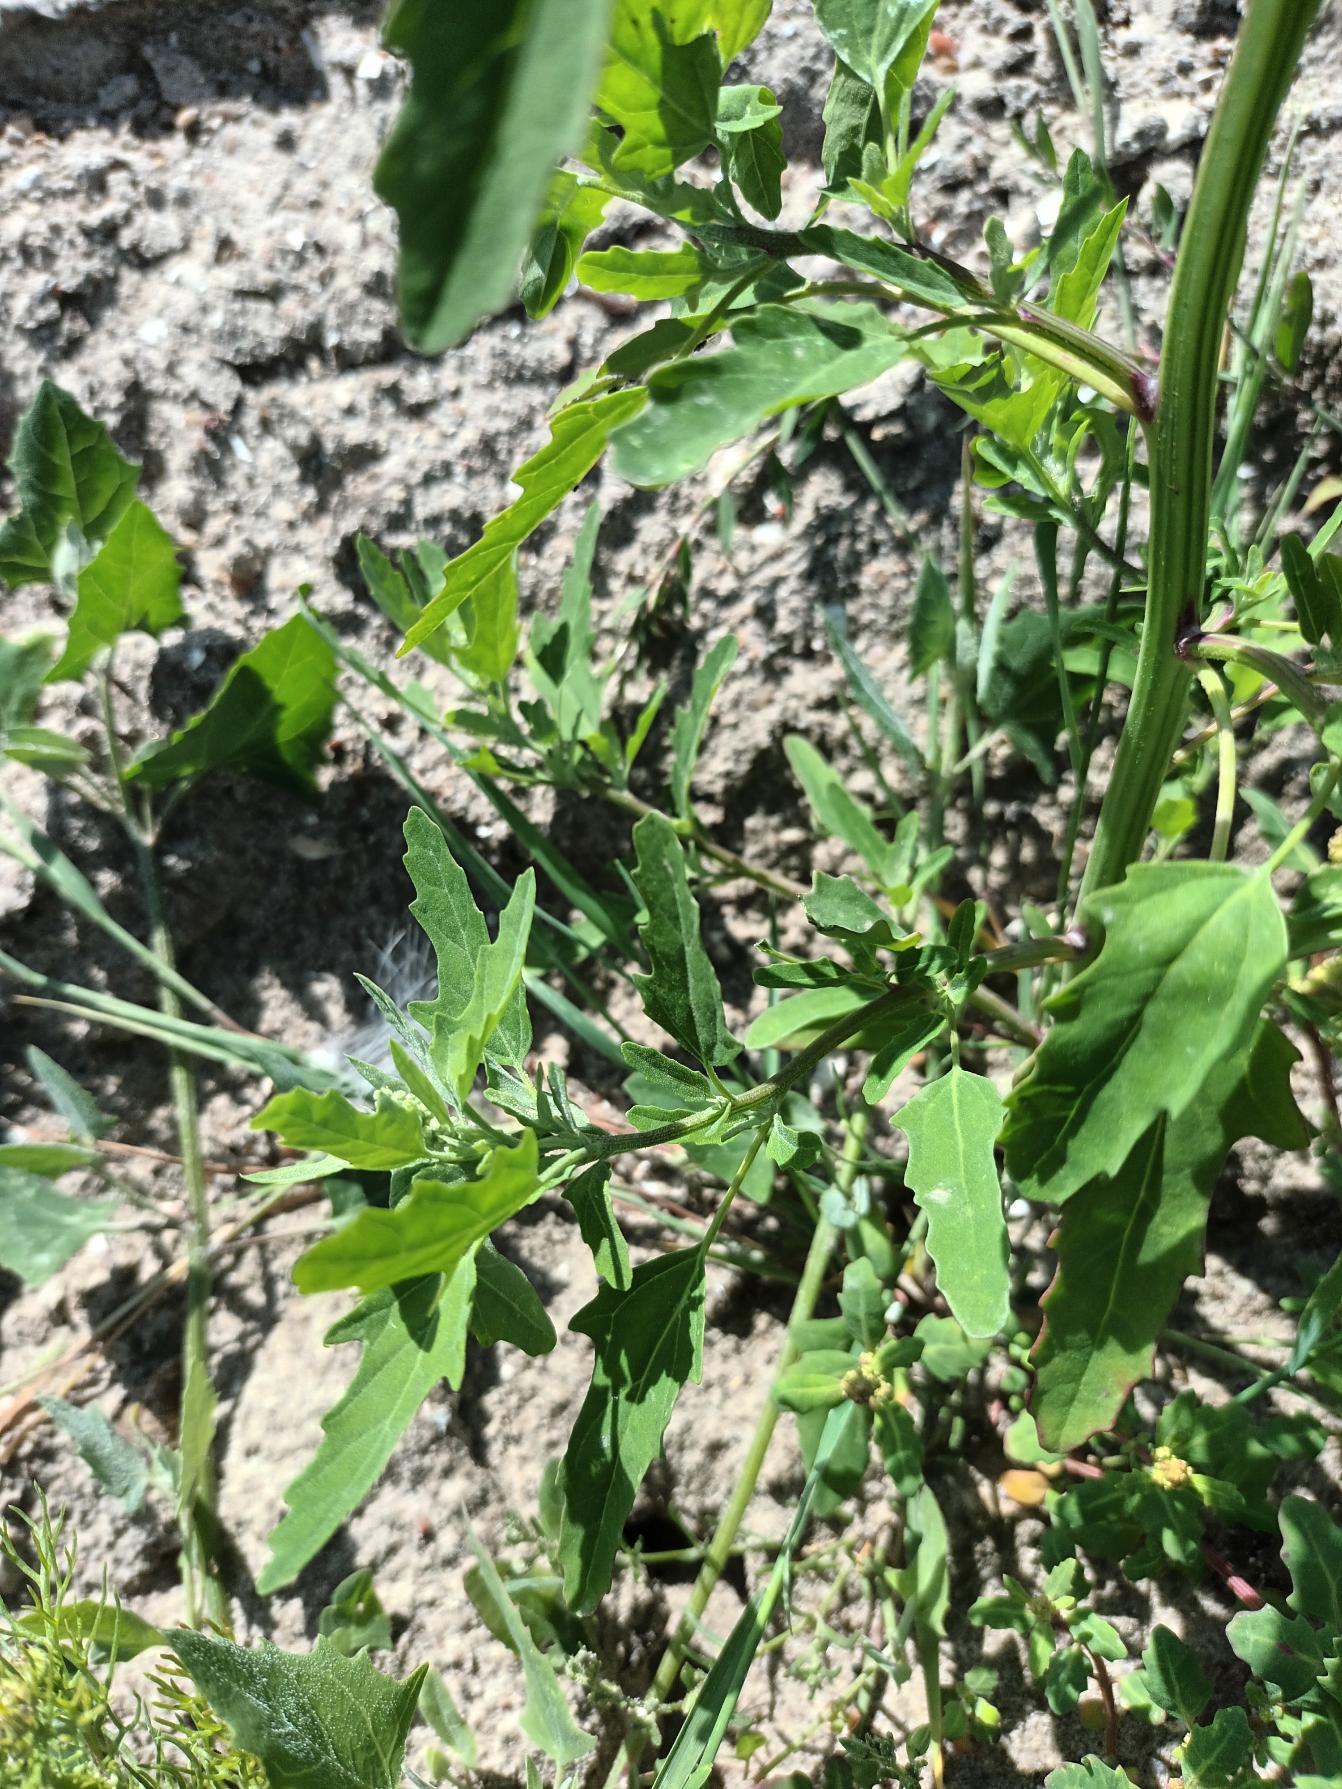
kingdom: Plantae
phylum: Tracheophyta
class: Magnoliopsida
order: Caryophyllales
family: Amaranthaceae
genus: Chenopodium
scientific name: Chenopodium ficifolium
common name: Figenbladet gåsefod
